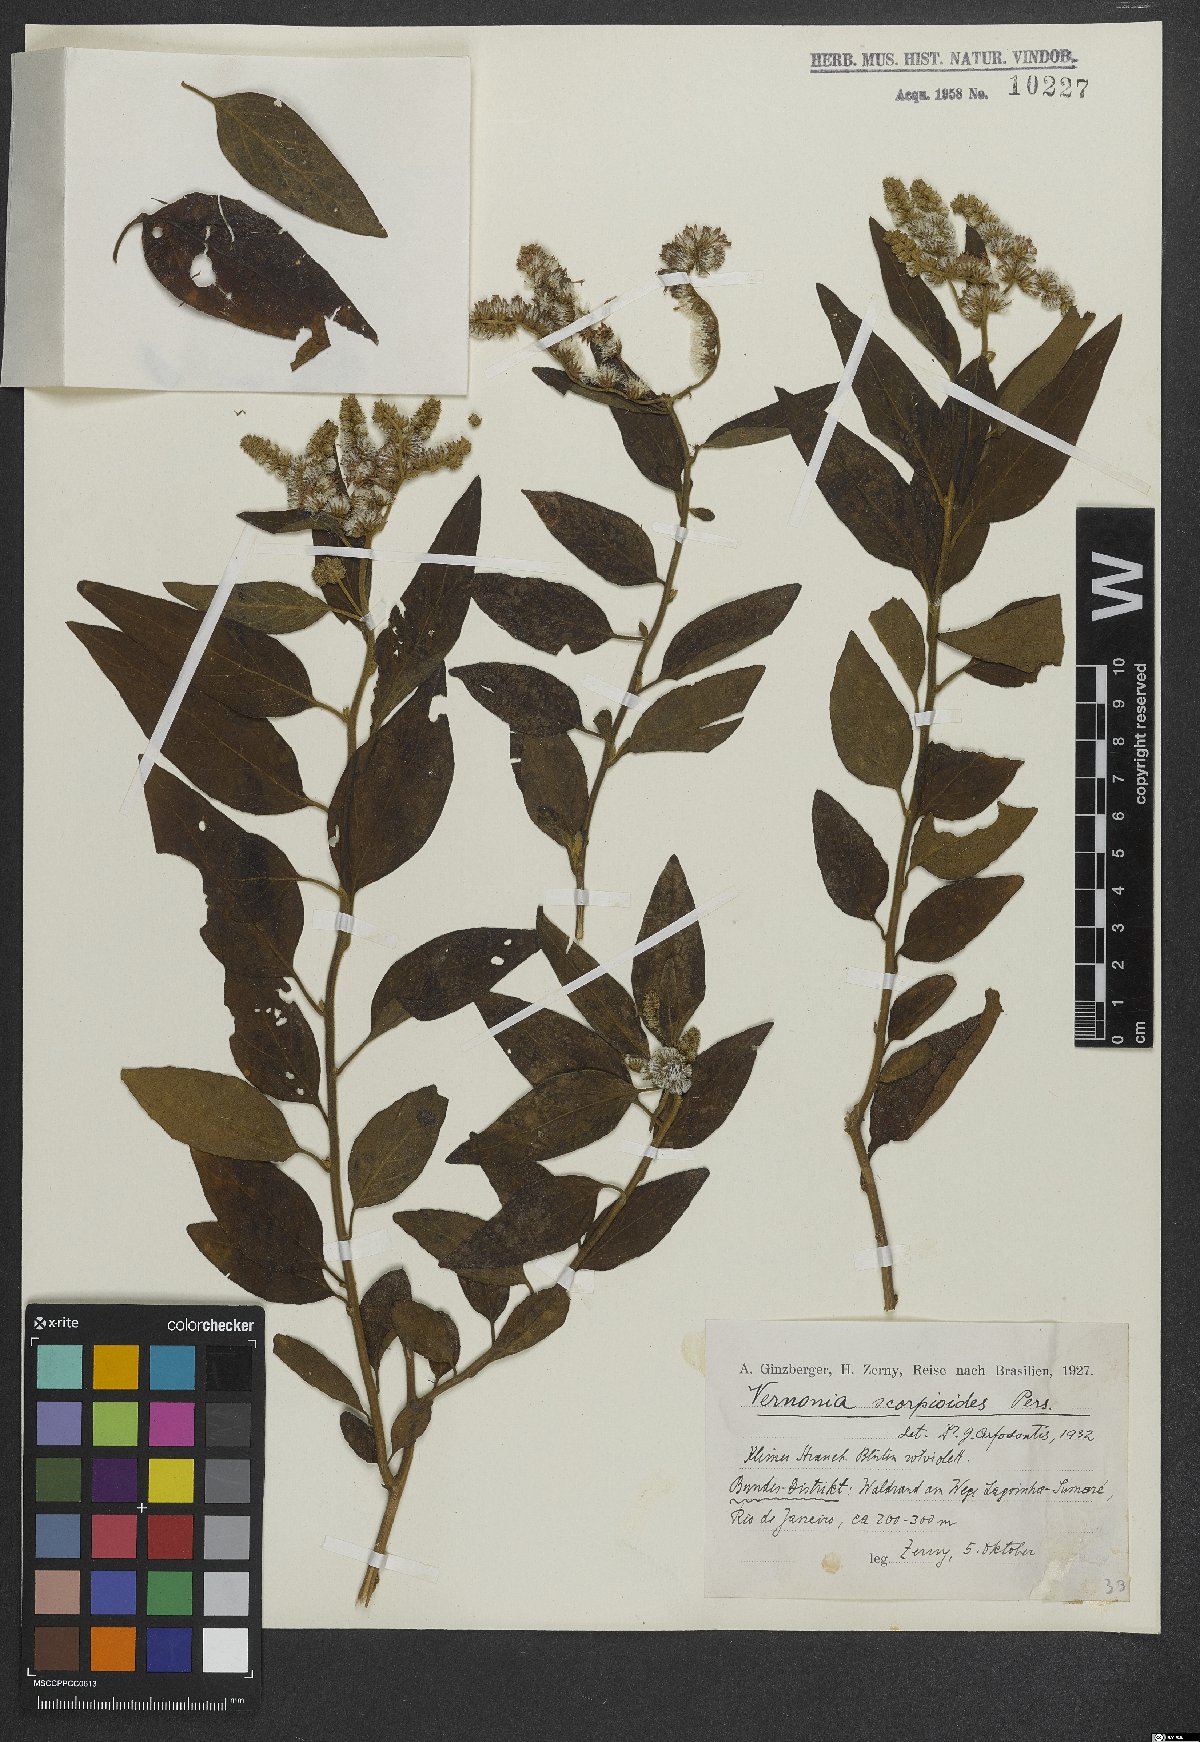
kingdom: Plantae
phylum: Tracheophyta
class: Magnoliopsida
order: Asterales
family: Asteraceae
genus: Cyrtocymura
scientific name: Cyrtocymura scorpioides
